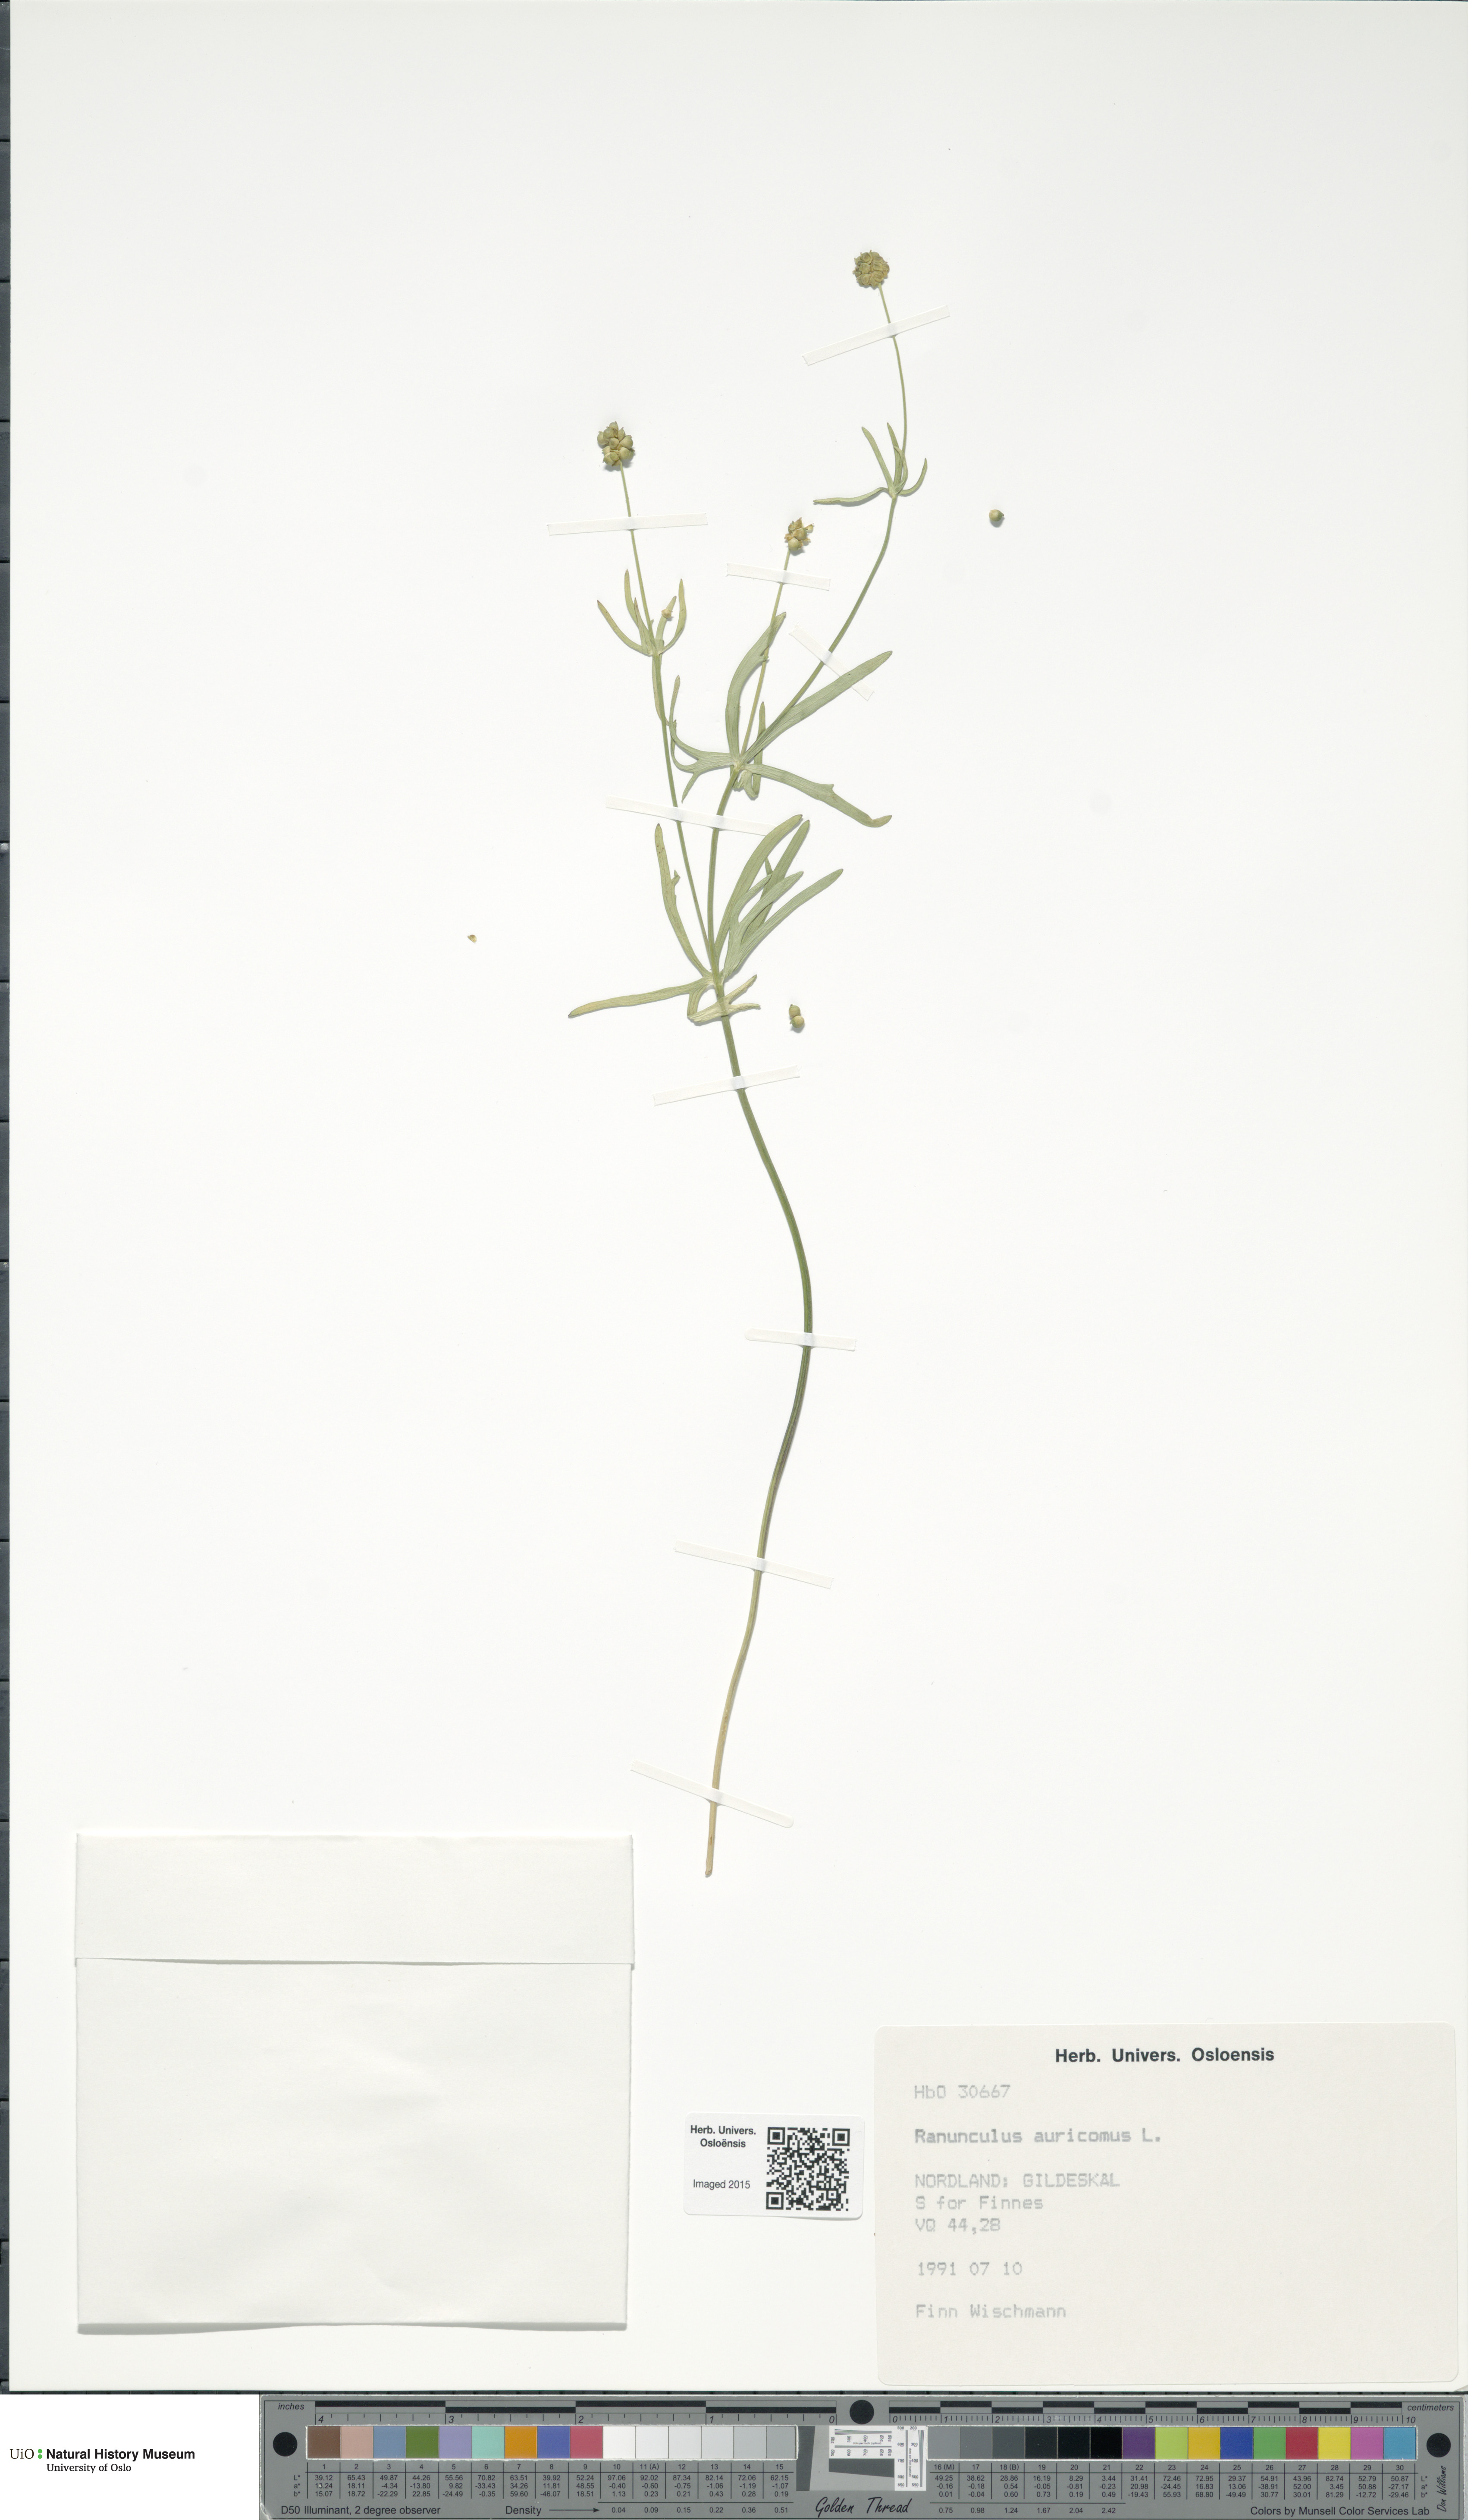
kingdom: Plantae
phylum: Tracheophyta
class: Magnoliopsida
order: Ranunculales
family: Ranunculaceae
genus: Ranunculus
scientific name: Ranunculus auricomus
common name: Goldilocks buttercup
